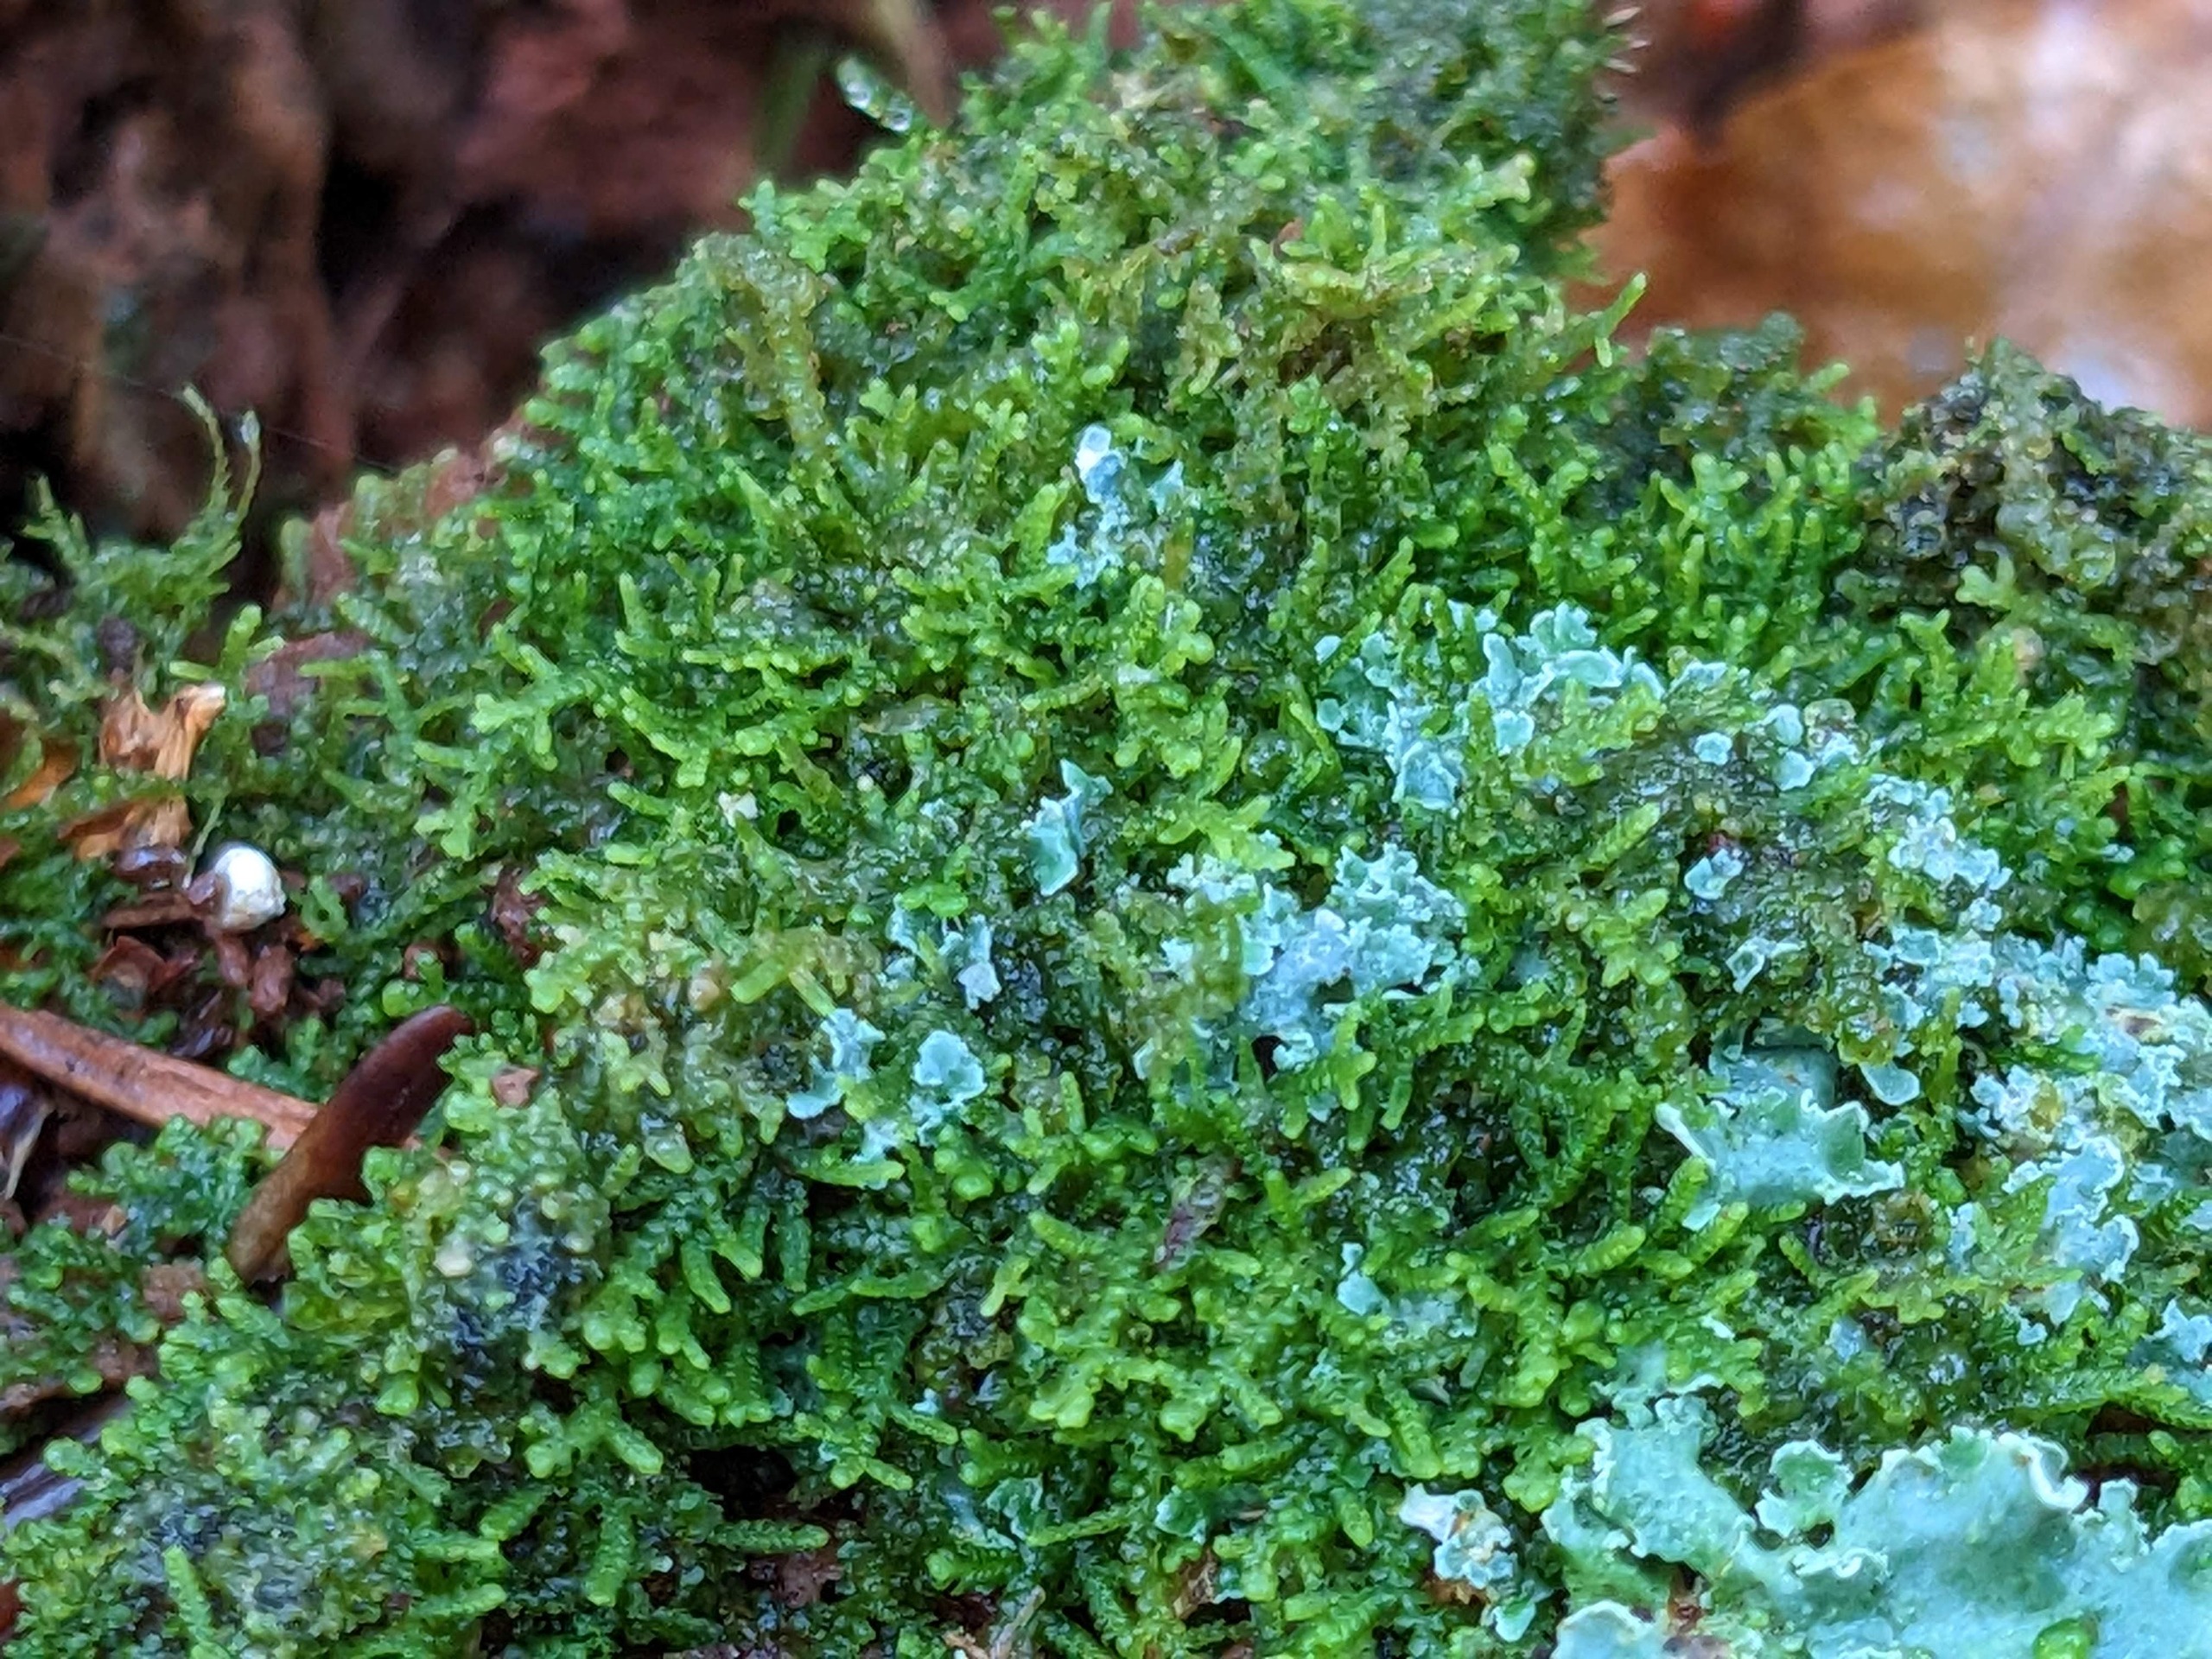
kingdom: Plantae
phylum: Marchantiophyta
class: Jungermanniopsida
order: Jungermanniales
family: Lepidoziaceae
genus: Lepidozia
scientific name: Lepidozia reptans
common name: Krybende fingermos
